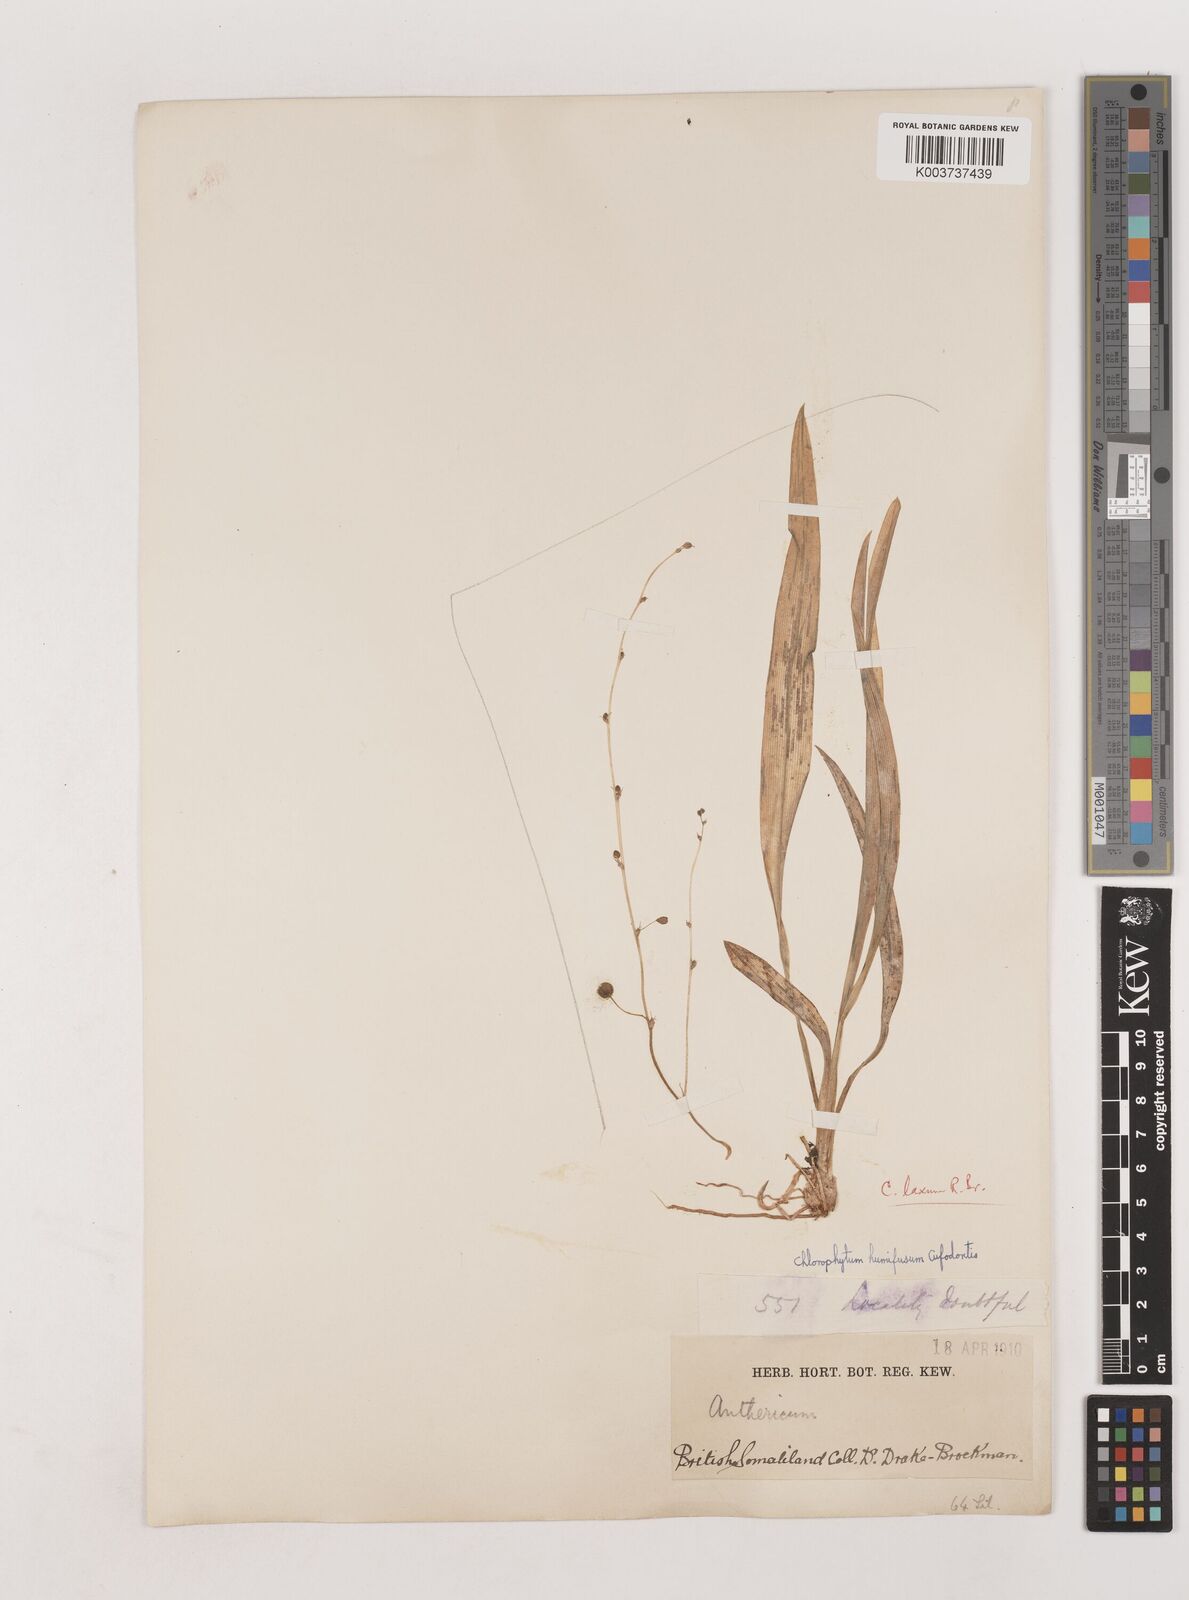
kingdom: Plantae
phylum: Tracheophyta
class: Liliopsida
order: Asparagales
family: Asparagaceae
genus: Chlorophytum
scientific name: Chlorophytum humifusum
